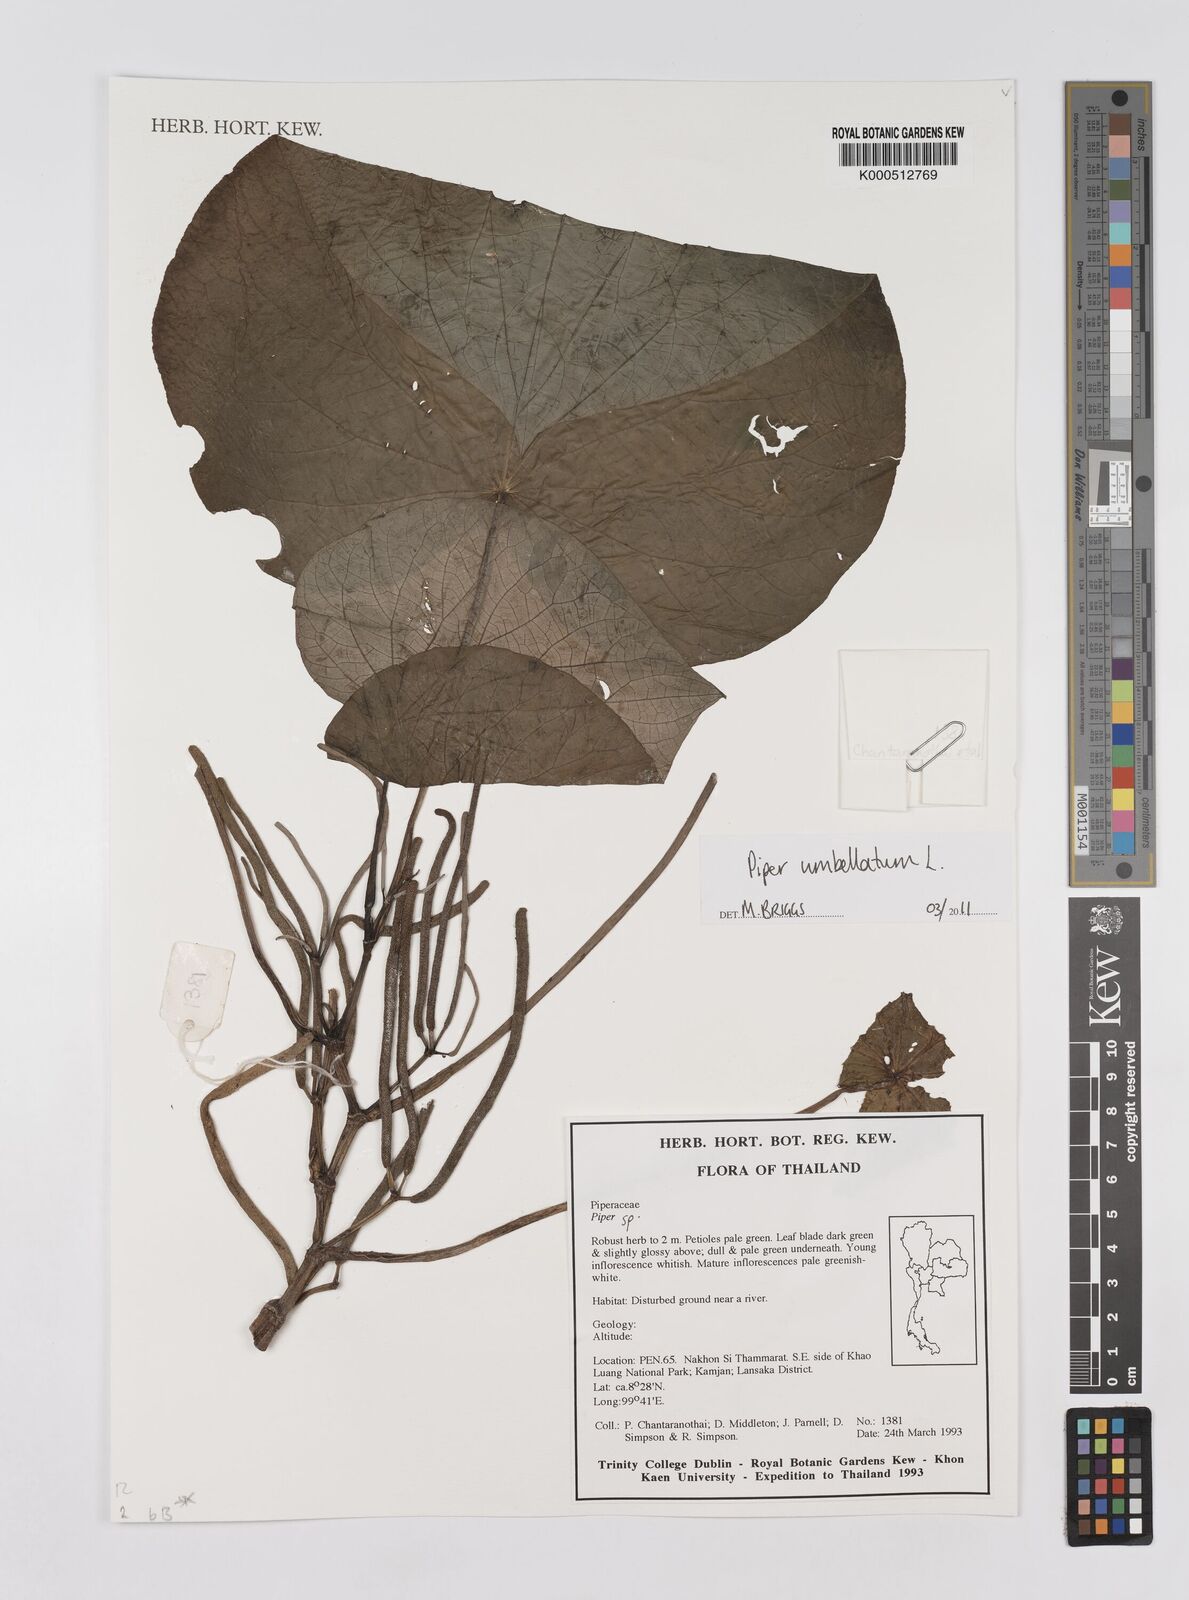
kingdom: Plantae
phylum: Tracheophyta
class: Magnoliopsida
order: Piperales
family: Piperaceae
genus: Piper
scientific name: Piper umbellatum
